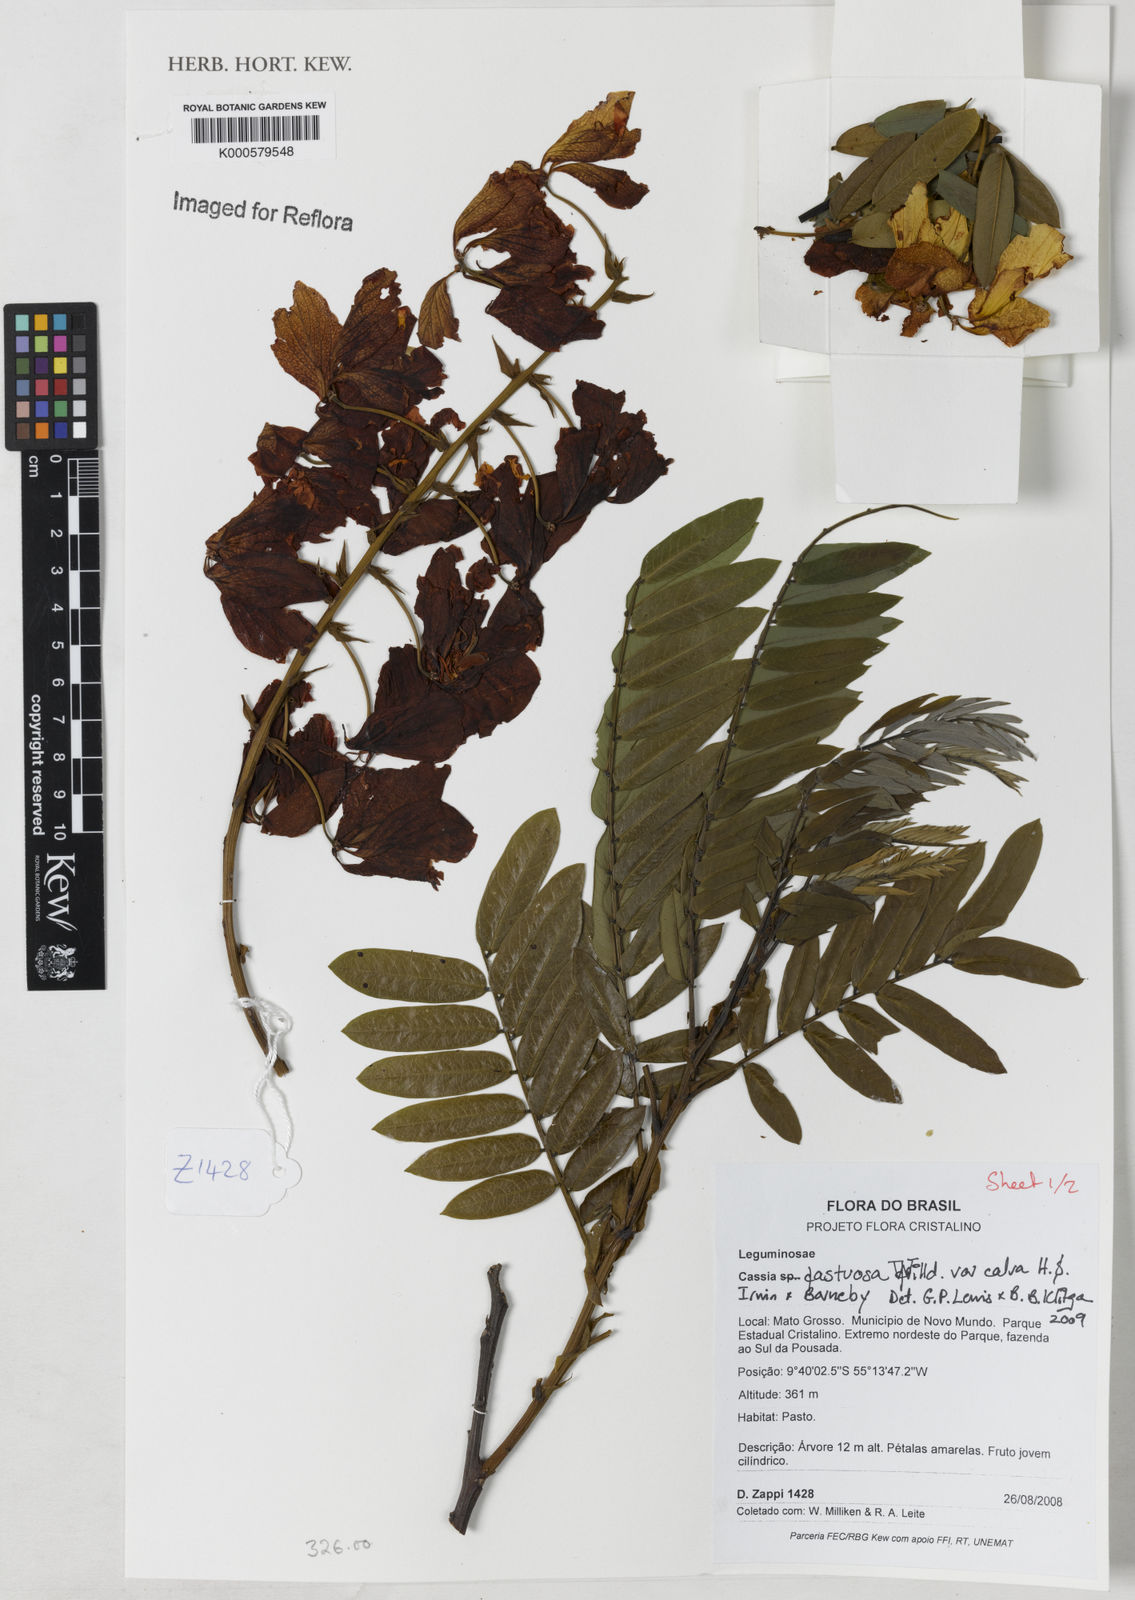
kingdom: Plantae
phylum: Tracheophyta
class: Magnoliopsida
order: Fabales
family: Fabaceae
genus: Cassia
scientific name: Cassia fastuosa
